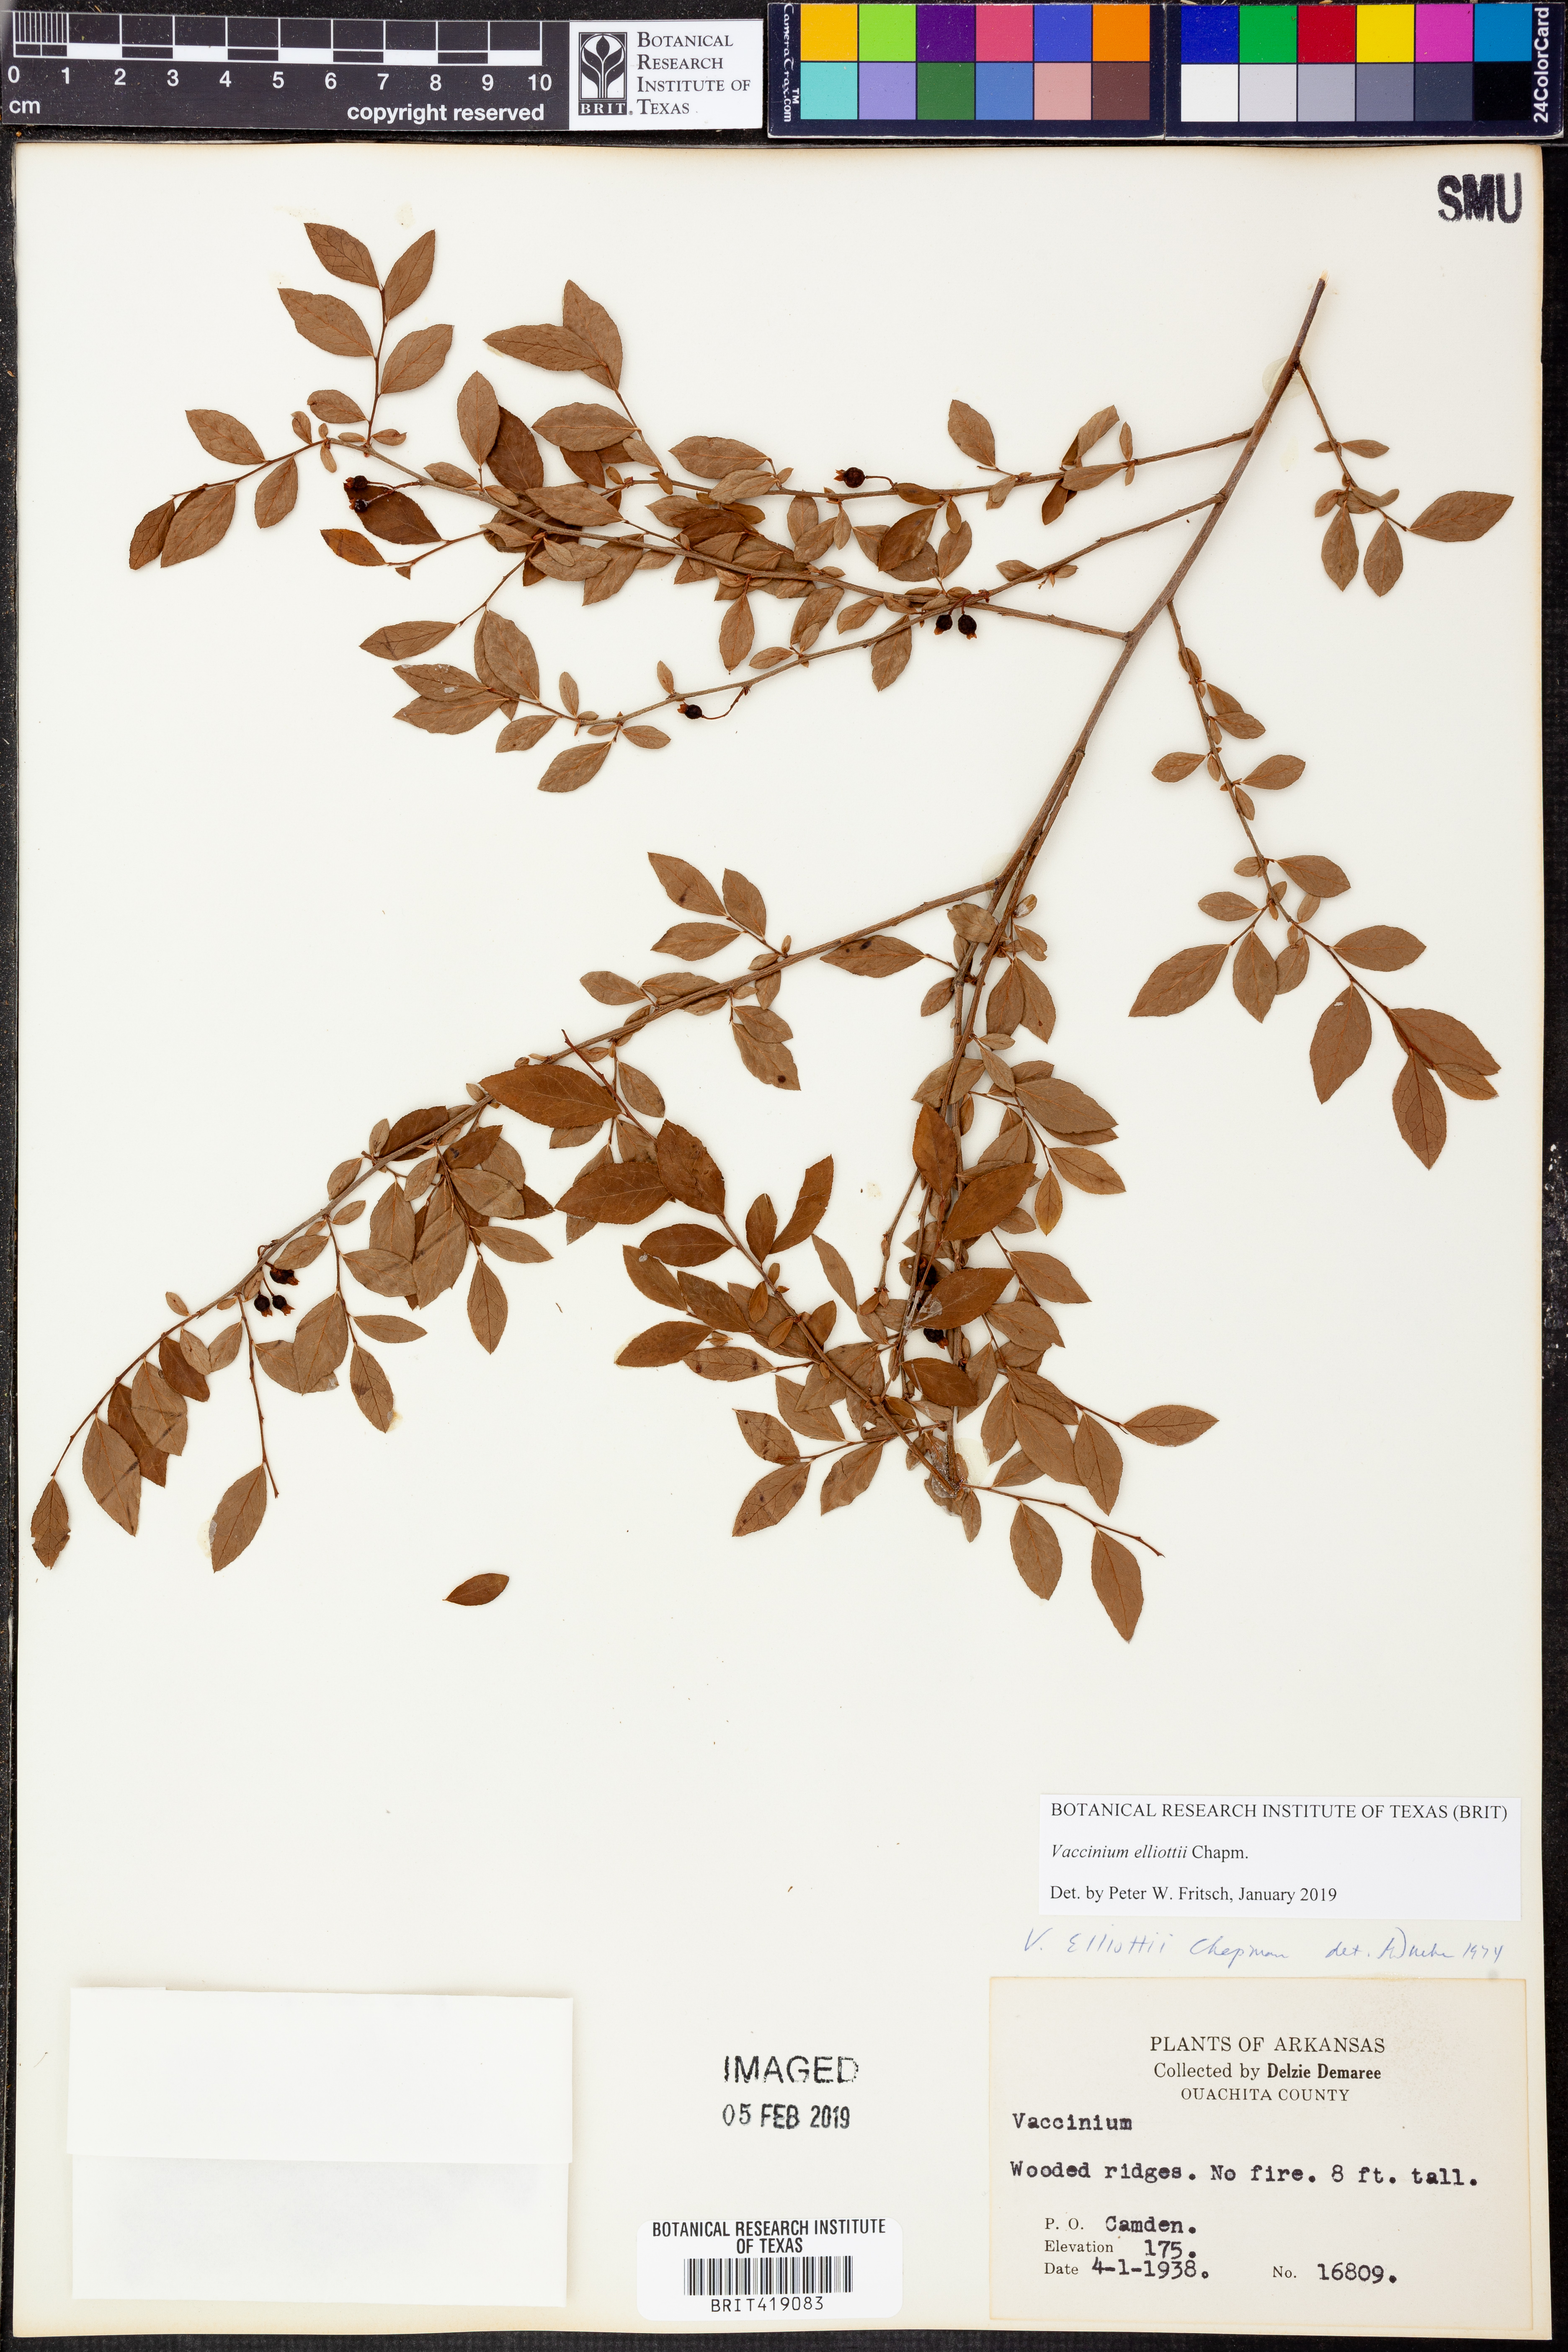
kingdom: Plantae
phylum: Tracheophyta
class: Magnoliopsida
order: Ericales
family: Ericaceae
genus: Vaccinium
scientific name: Vaccinium corymbosum
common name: Blueberry
